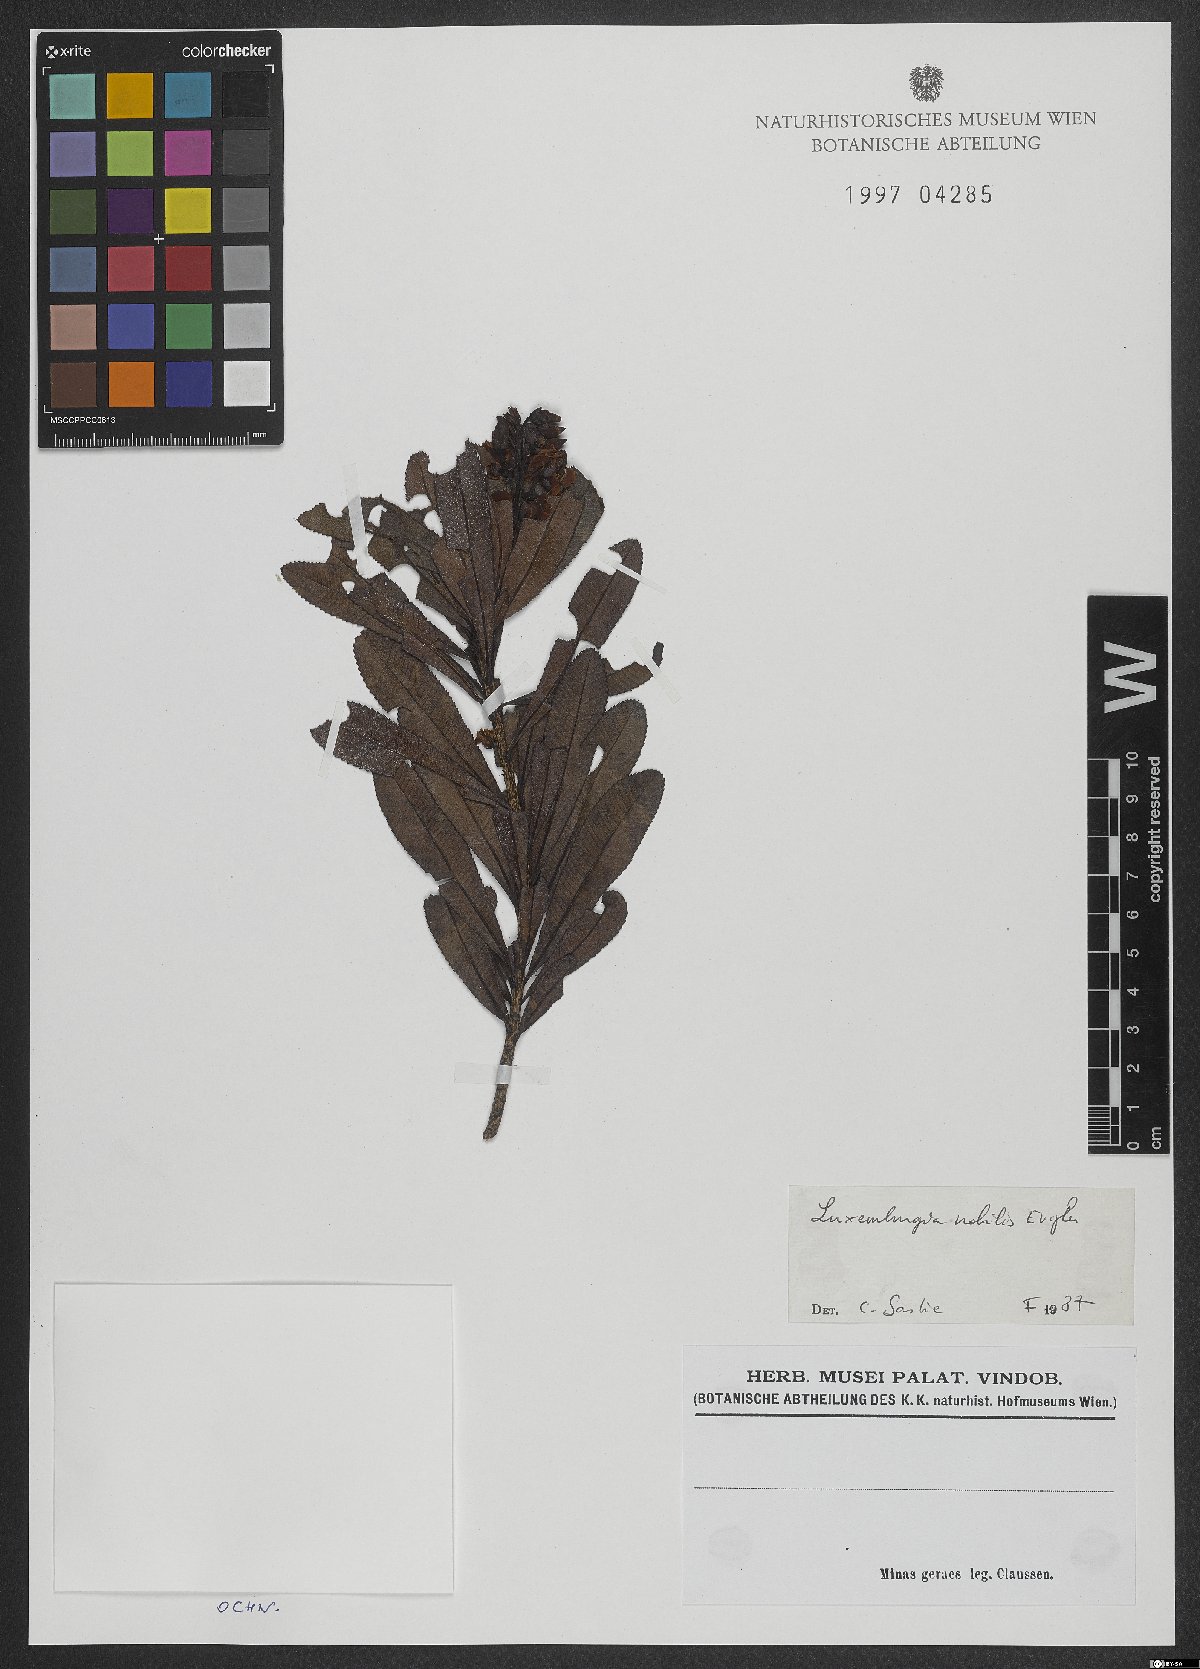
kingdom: Plantae
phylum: Tracheophyta
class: Magnoliopsida
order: Malpighiales
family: Ochnaceae
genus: Luxemburgia
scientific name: Luxemburgia nobilis
